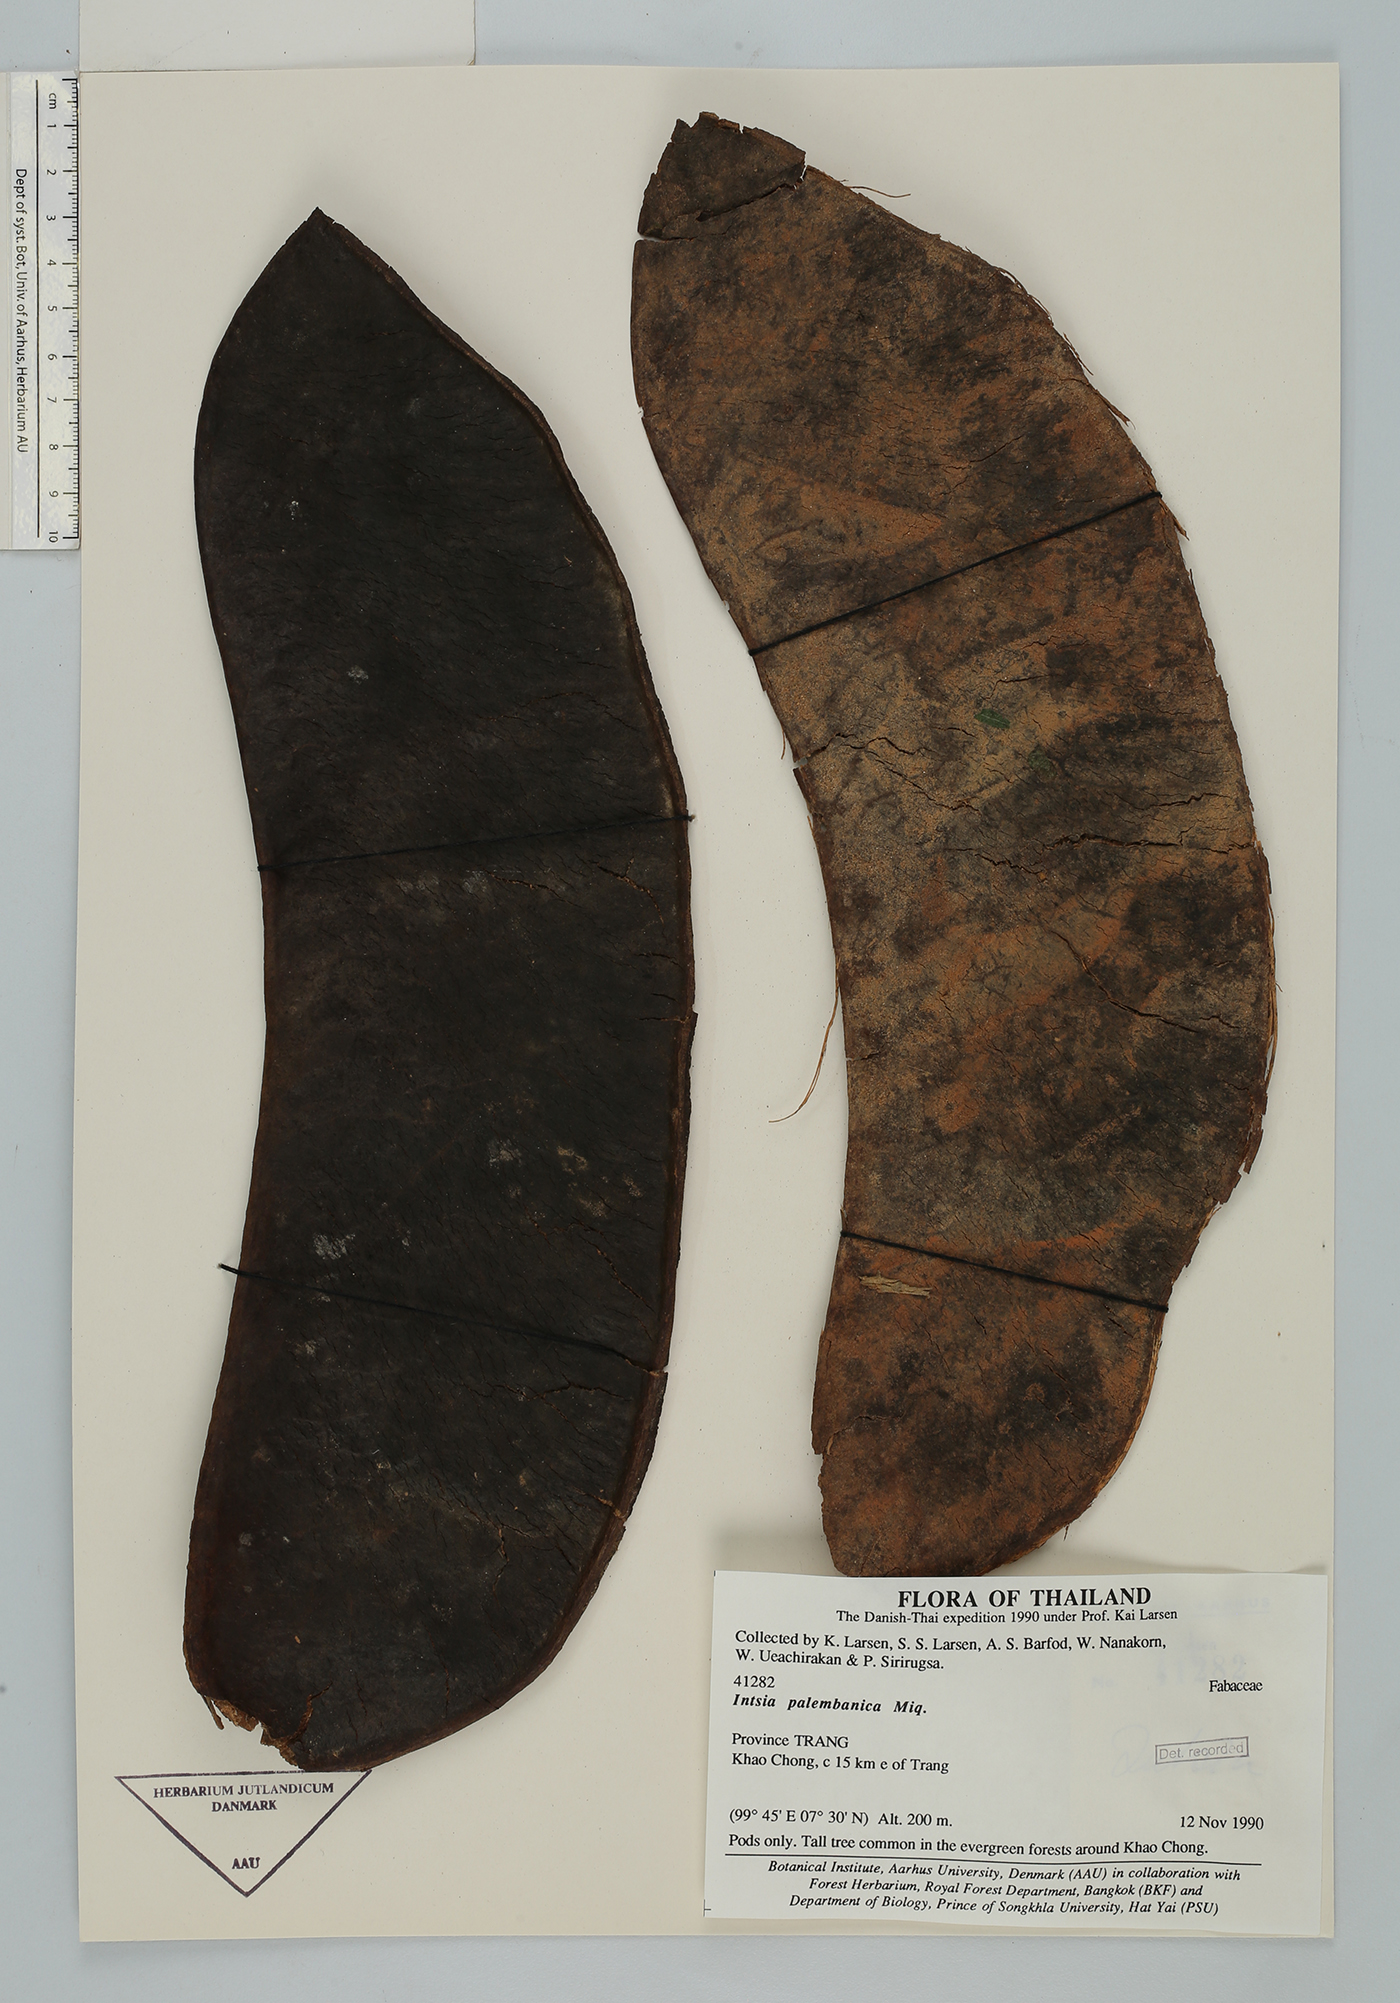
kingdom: Plantae
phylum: Tracheophyta
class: Magnoliopsida
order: Fabales
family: Fabaceae
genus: Intsia
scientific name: Intsia palembanica
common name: Merbau
